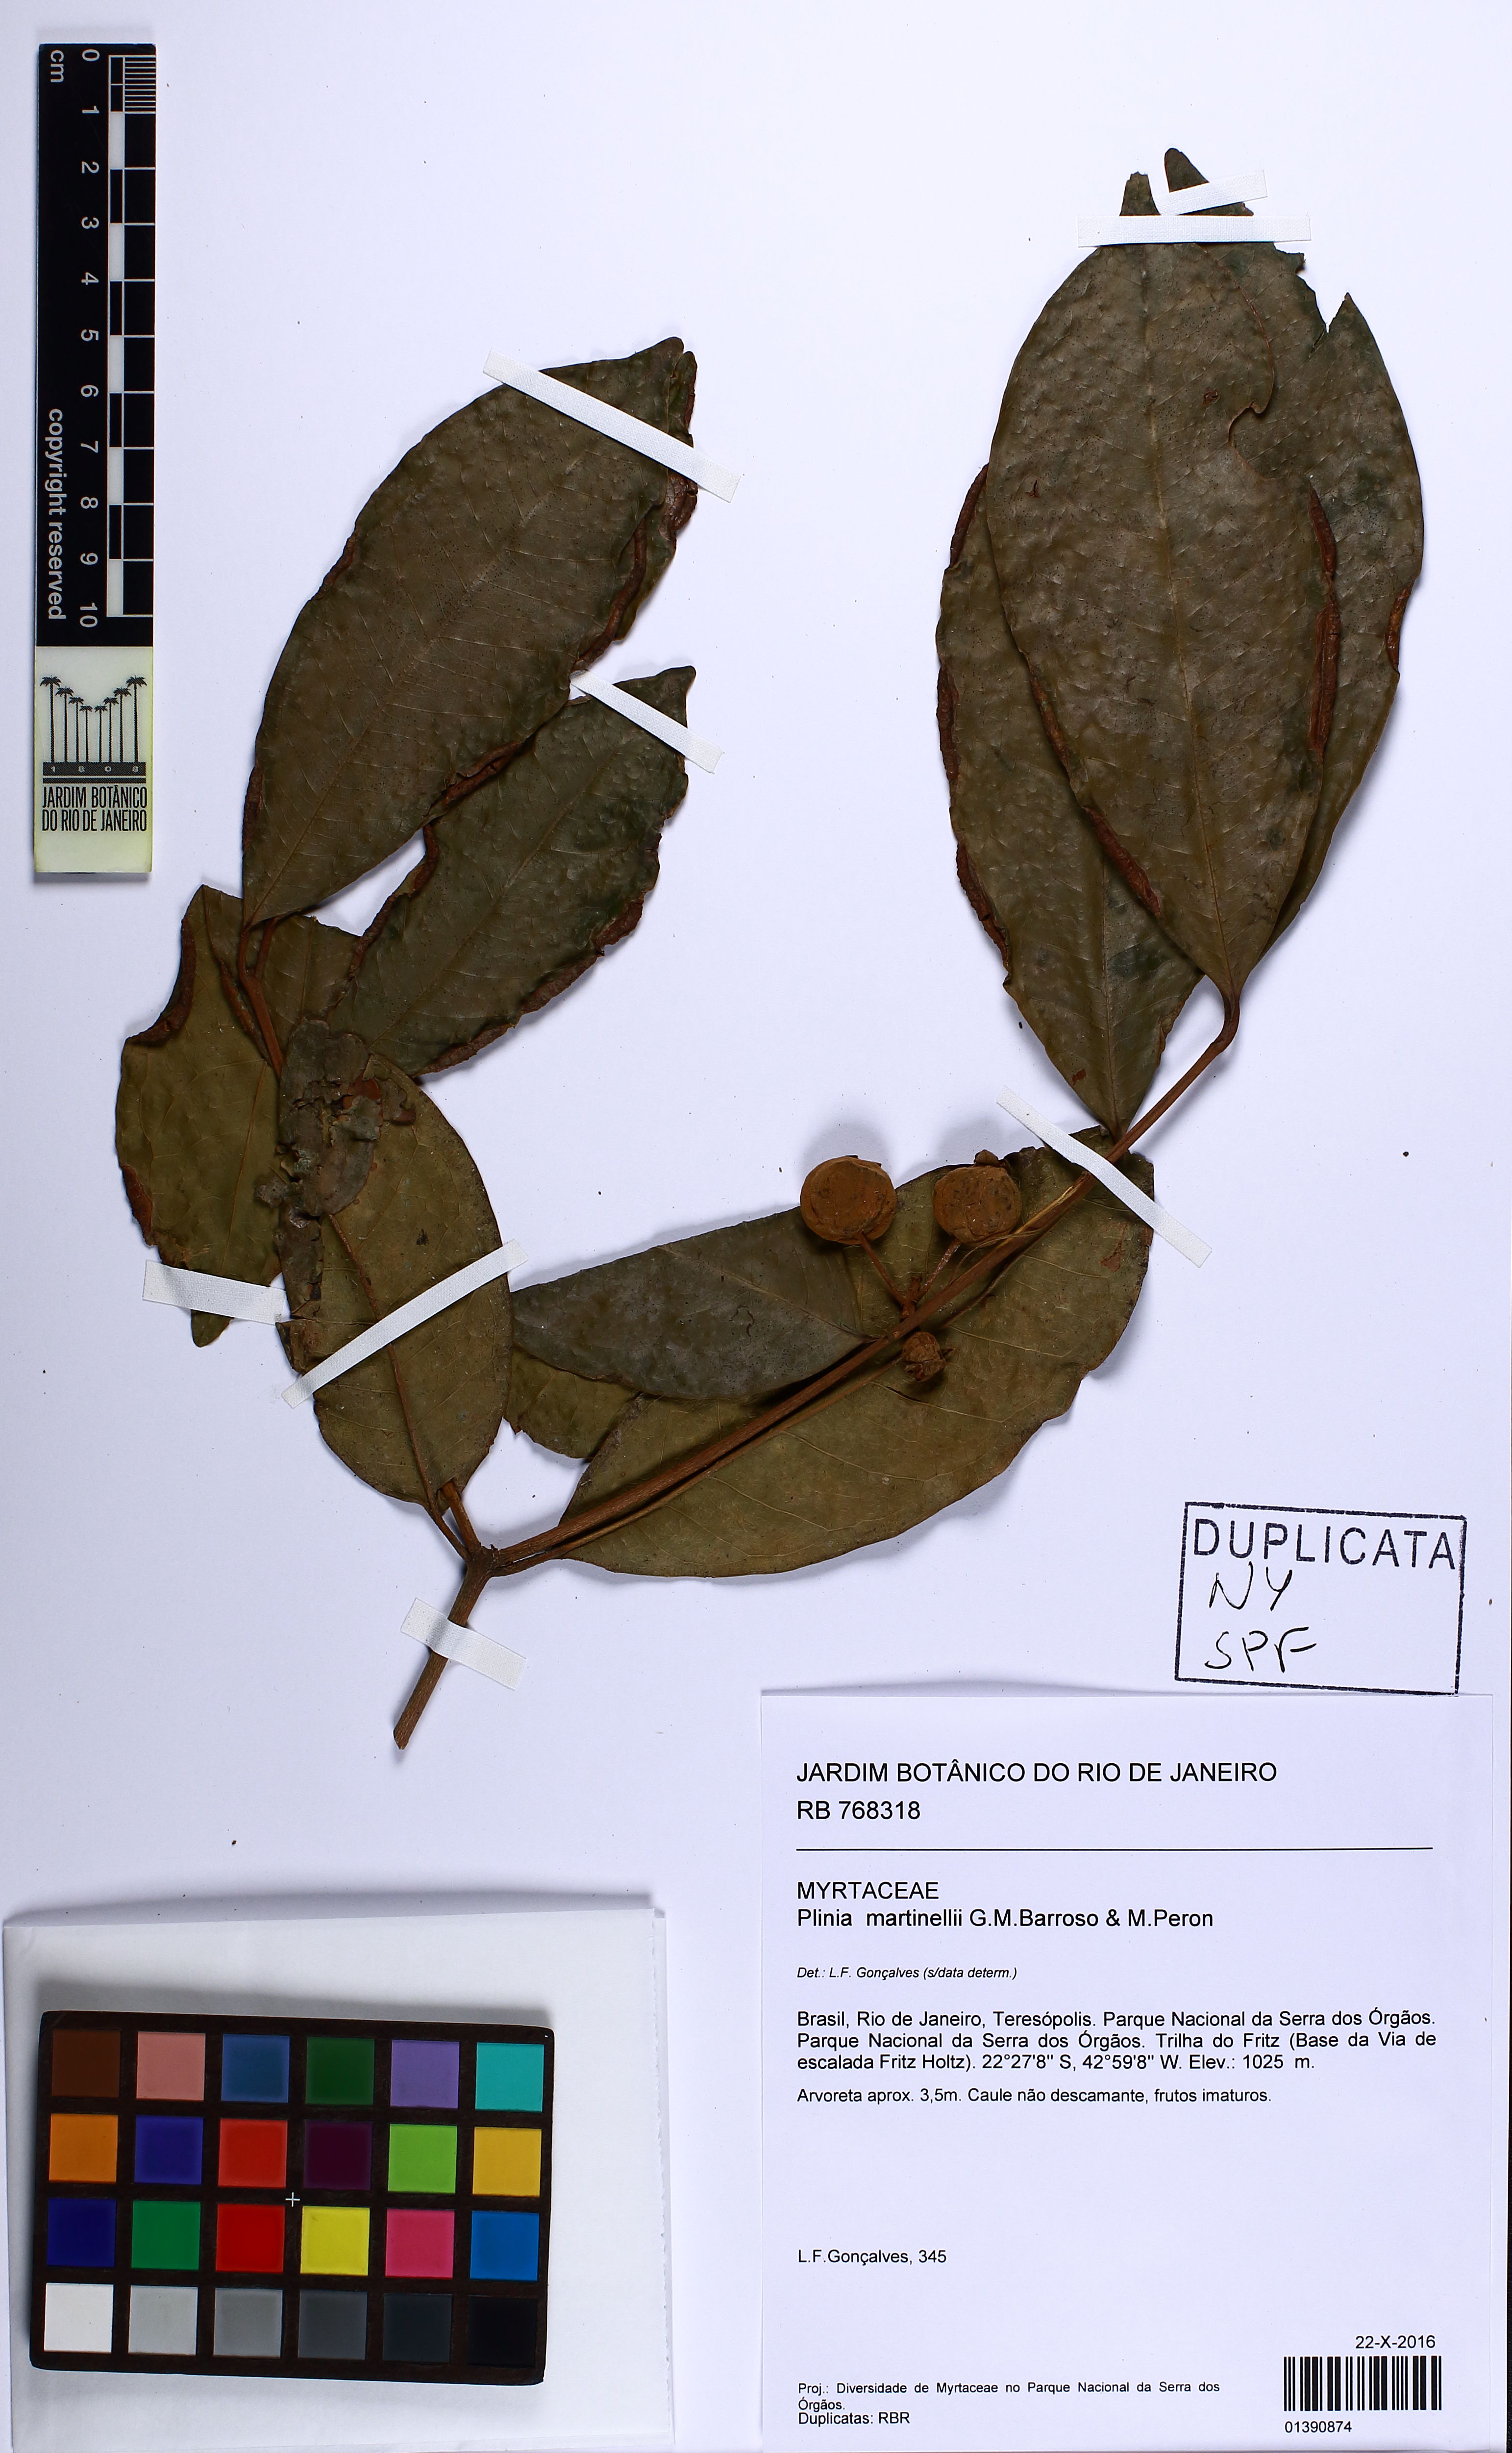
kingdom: Plantae
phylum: Tracheophyta
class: Magnoliopsida
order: Myrtales
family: Myrtaceae
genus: Eugenia
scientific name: Eugenia martinellii
